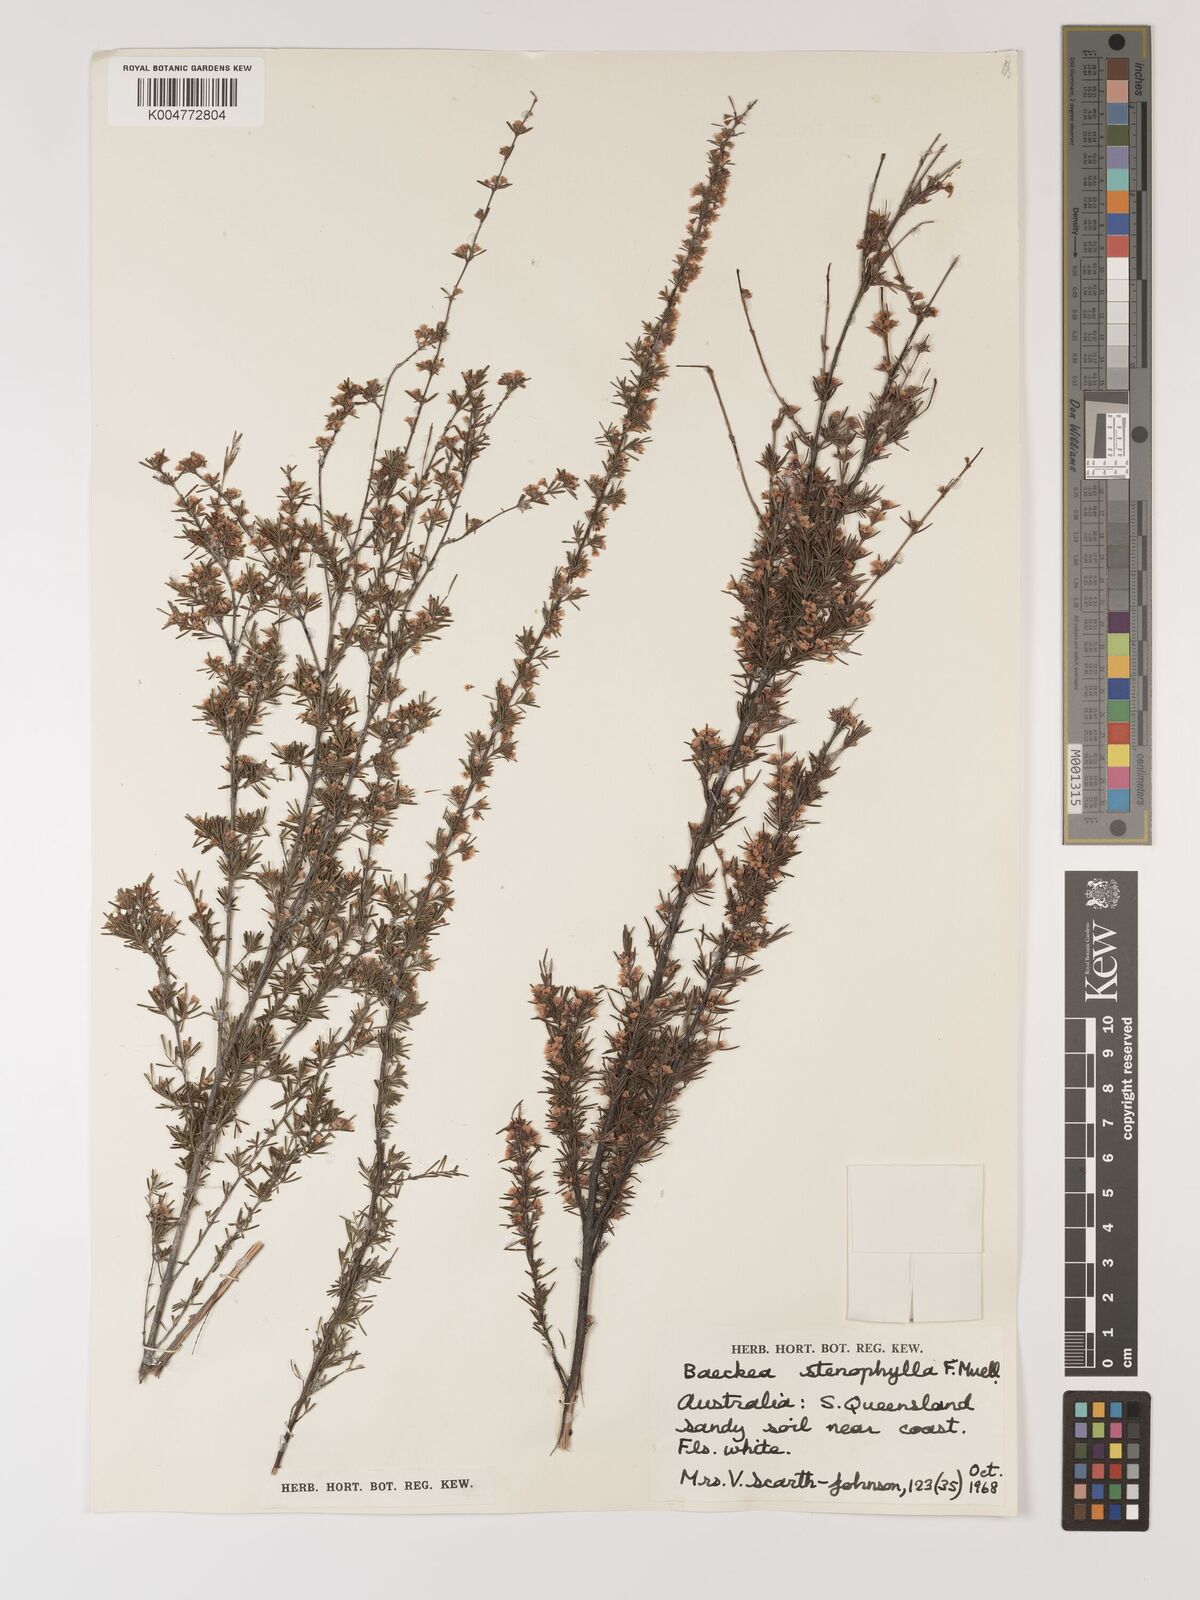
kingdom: Plantae
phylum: Tracheophyta
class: Magnoliopsida
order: Myrtales
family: Myrtaceae
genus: Baeckea
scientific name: Baeckea frutescens
